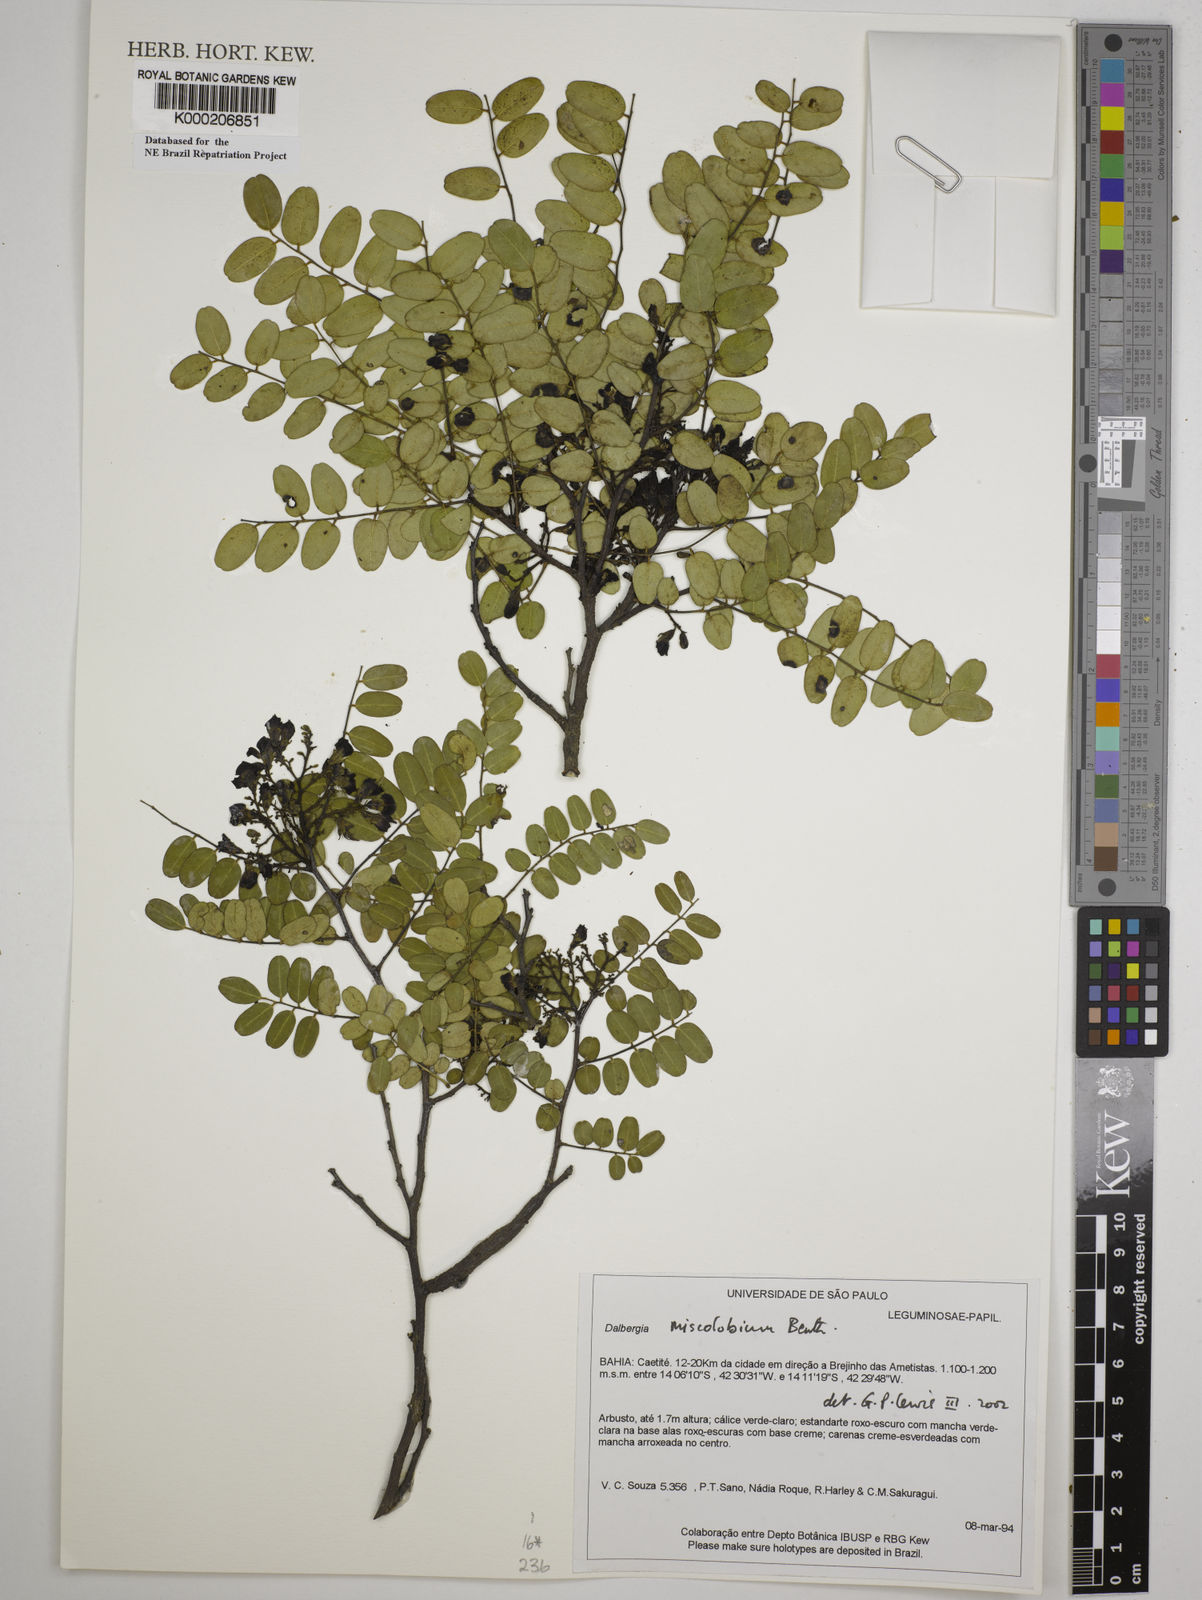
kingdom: Plantae
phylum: Tracheophyta
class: Magnoliopsida
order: Fabales
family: Fabaceae
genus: Dalbergia
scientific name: Dalbergia miscolobium
